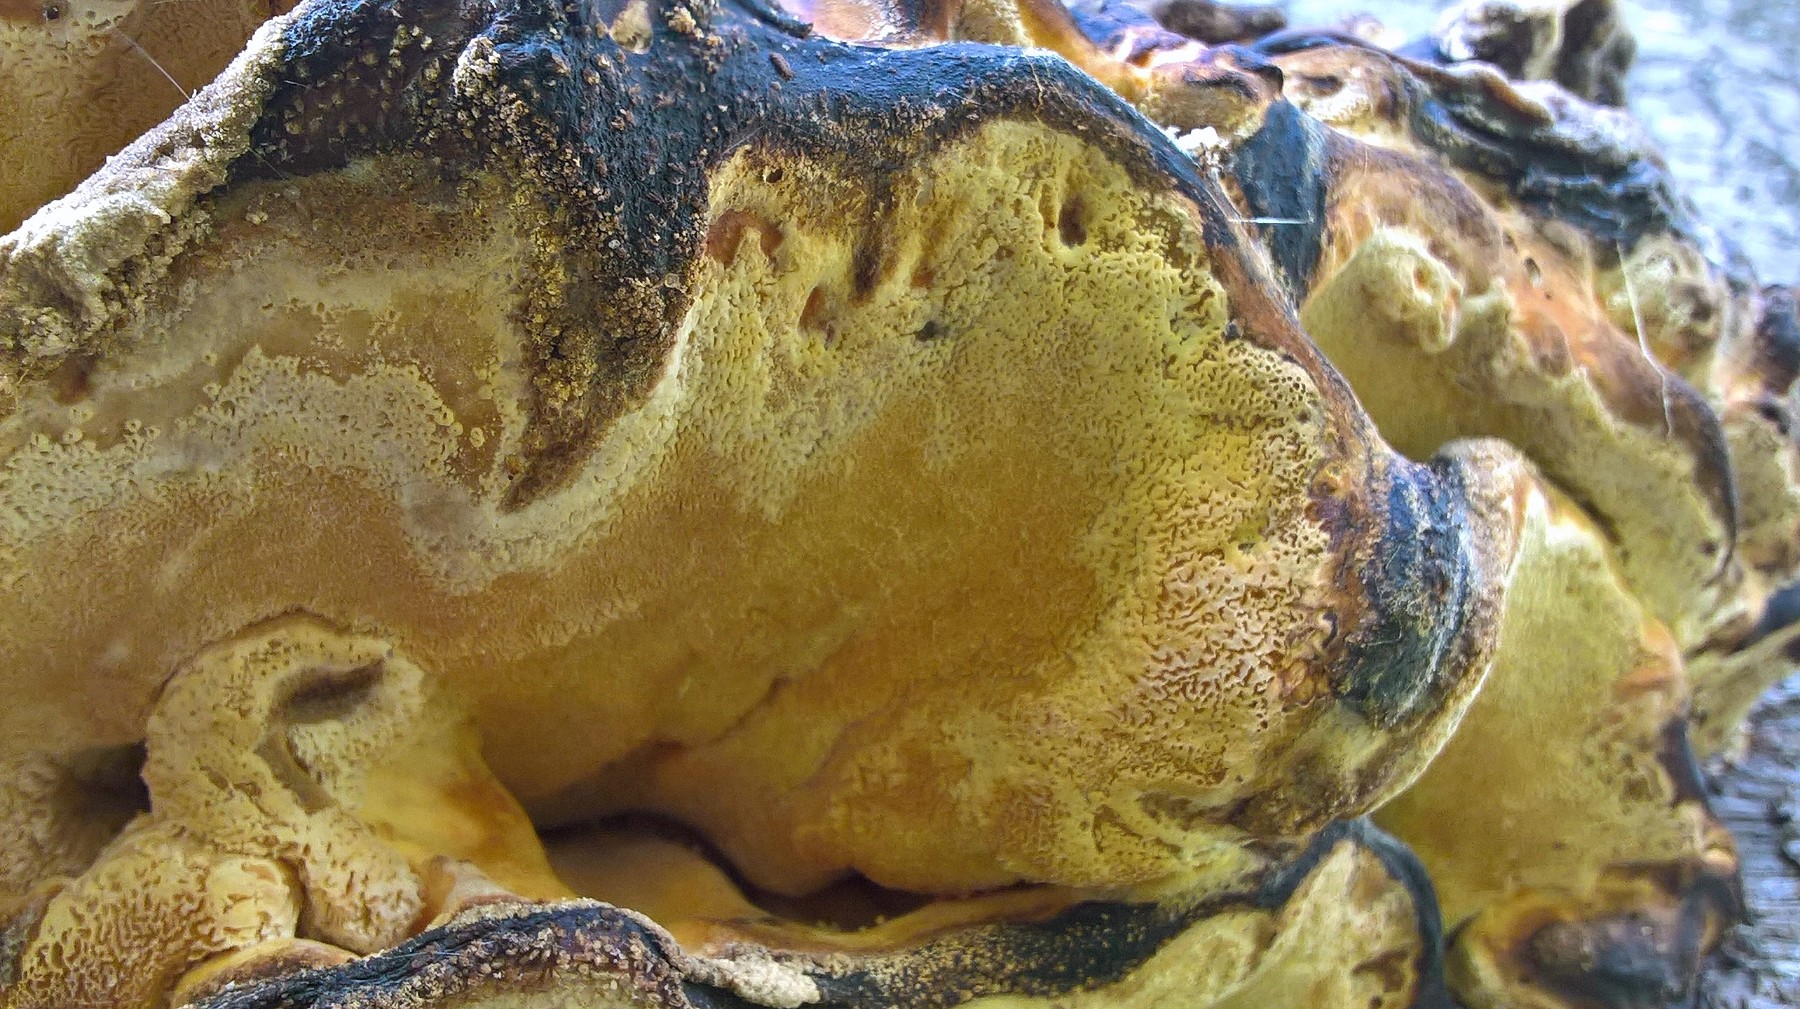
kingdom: Fungi
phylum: Basidiomycota
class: Agaricomycetes
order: Polyporales
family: Laetiporaceae
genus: Laetiporus
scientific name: Laetiporus sulphureus
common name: svovlporesvamp
